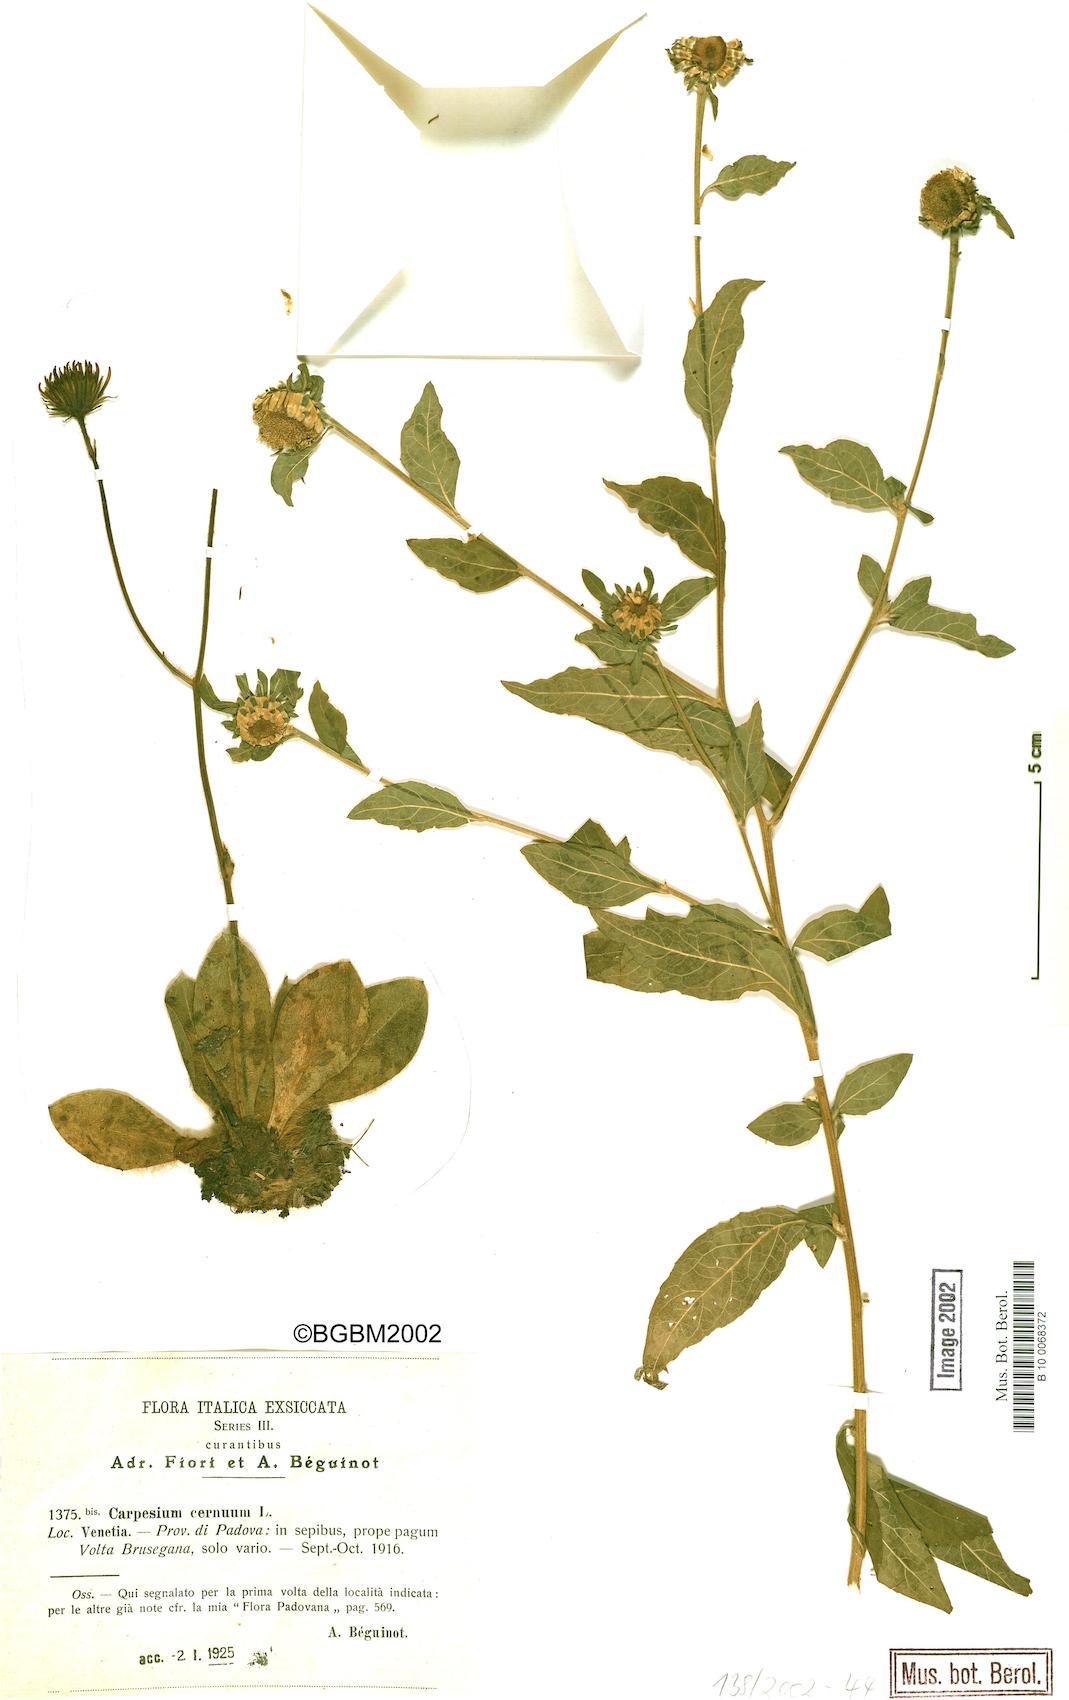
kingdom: Plantae
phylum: Tracheophyta
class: Magnoliopsida
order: Asterales
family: Asteraceae
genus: Carpesium
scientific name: Carpesium cernuum
